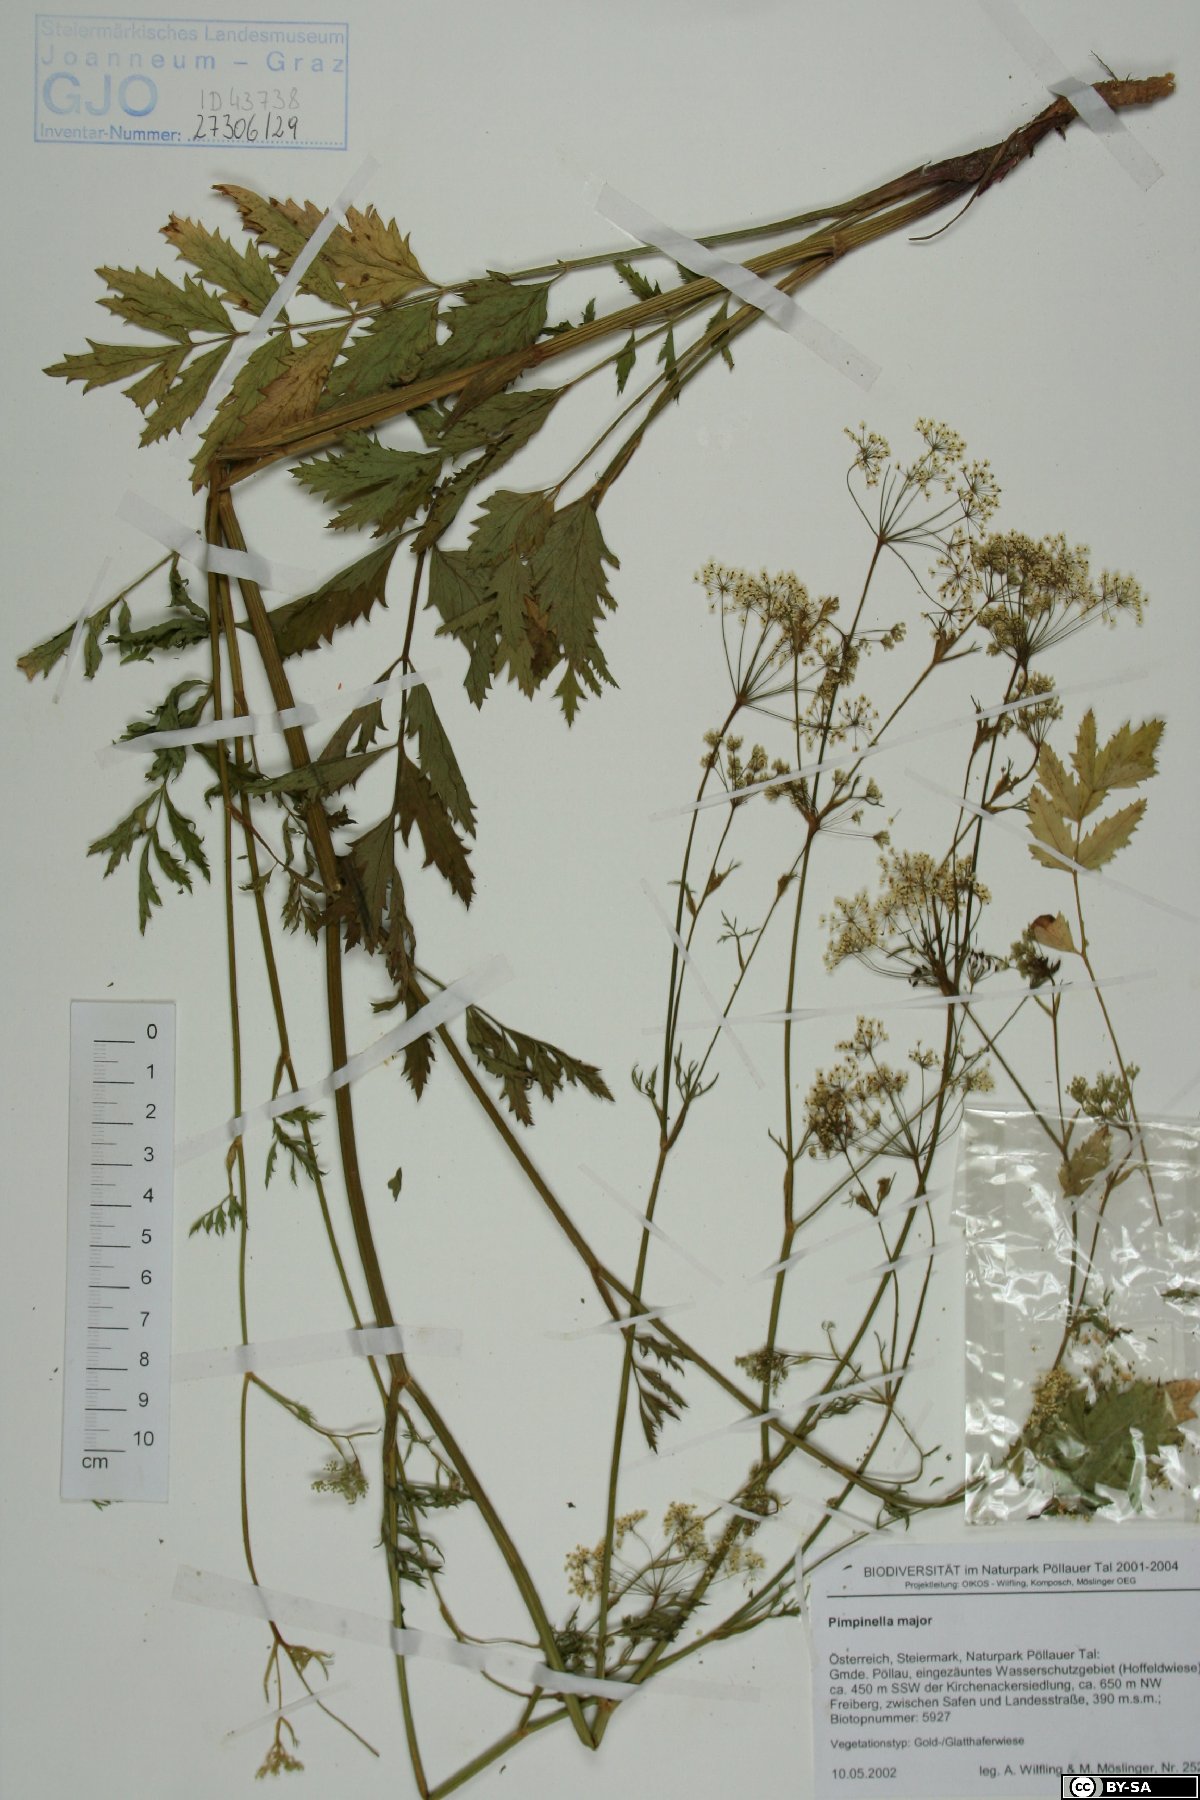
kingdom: Plantae
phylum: Tracheophyta
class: Magnoliopsida
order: Apiales
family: Apiaceae
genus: Pimpinella
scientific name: Pimpinella major
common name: Greater burnet-saxifrage
